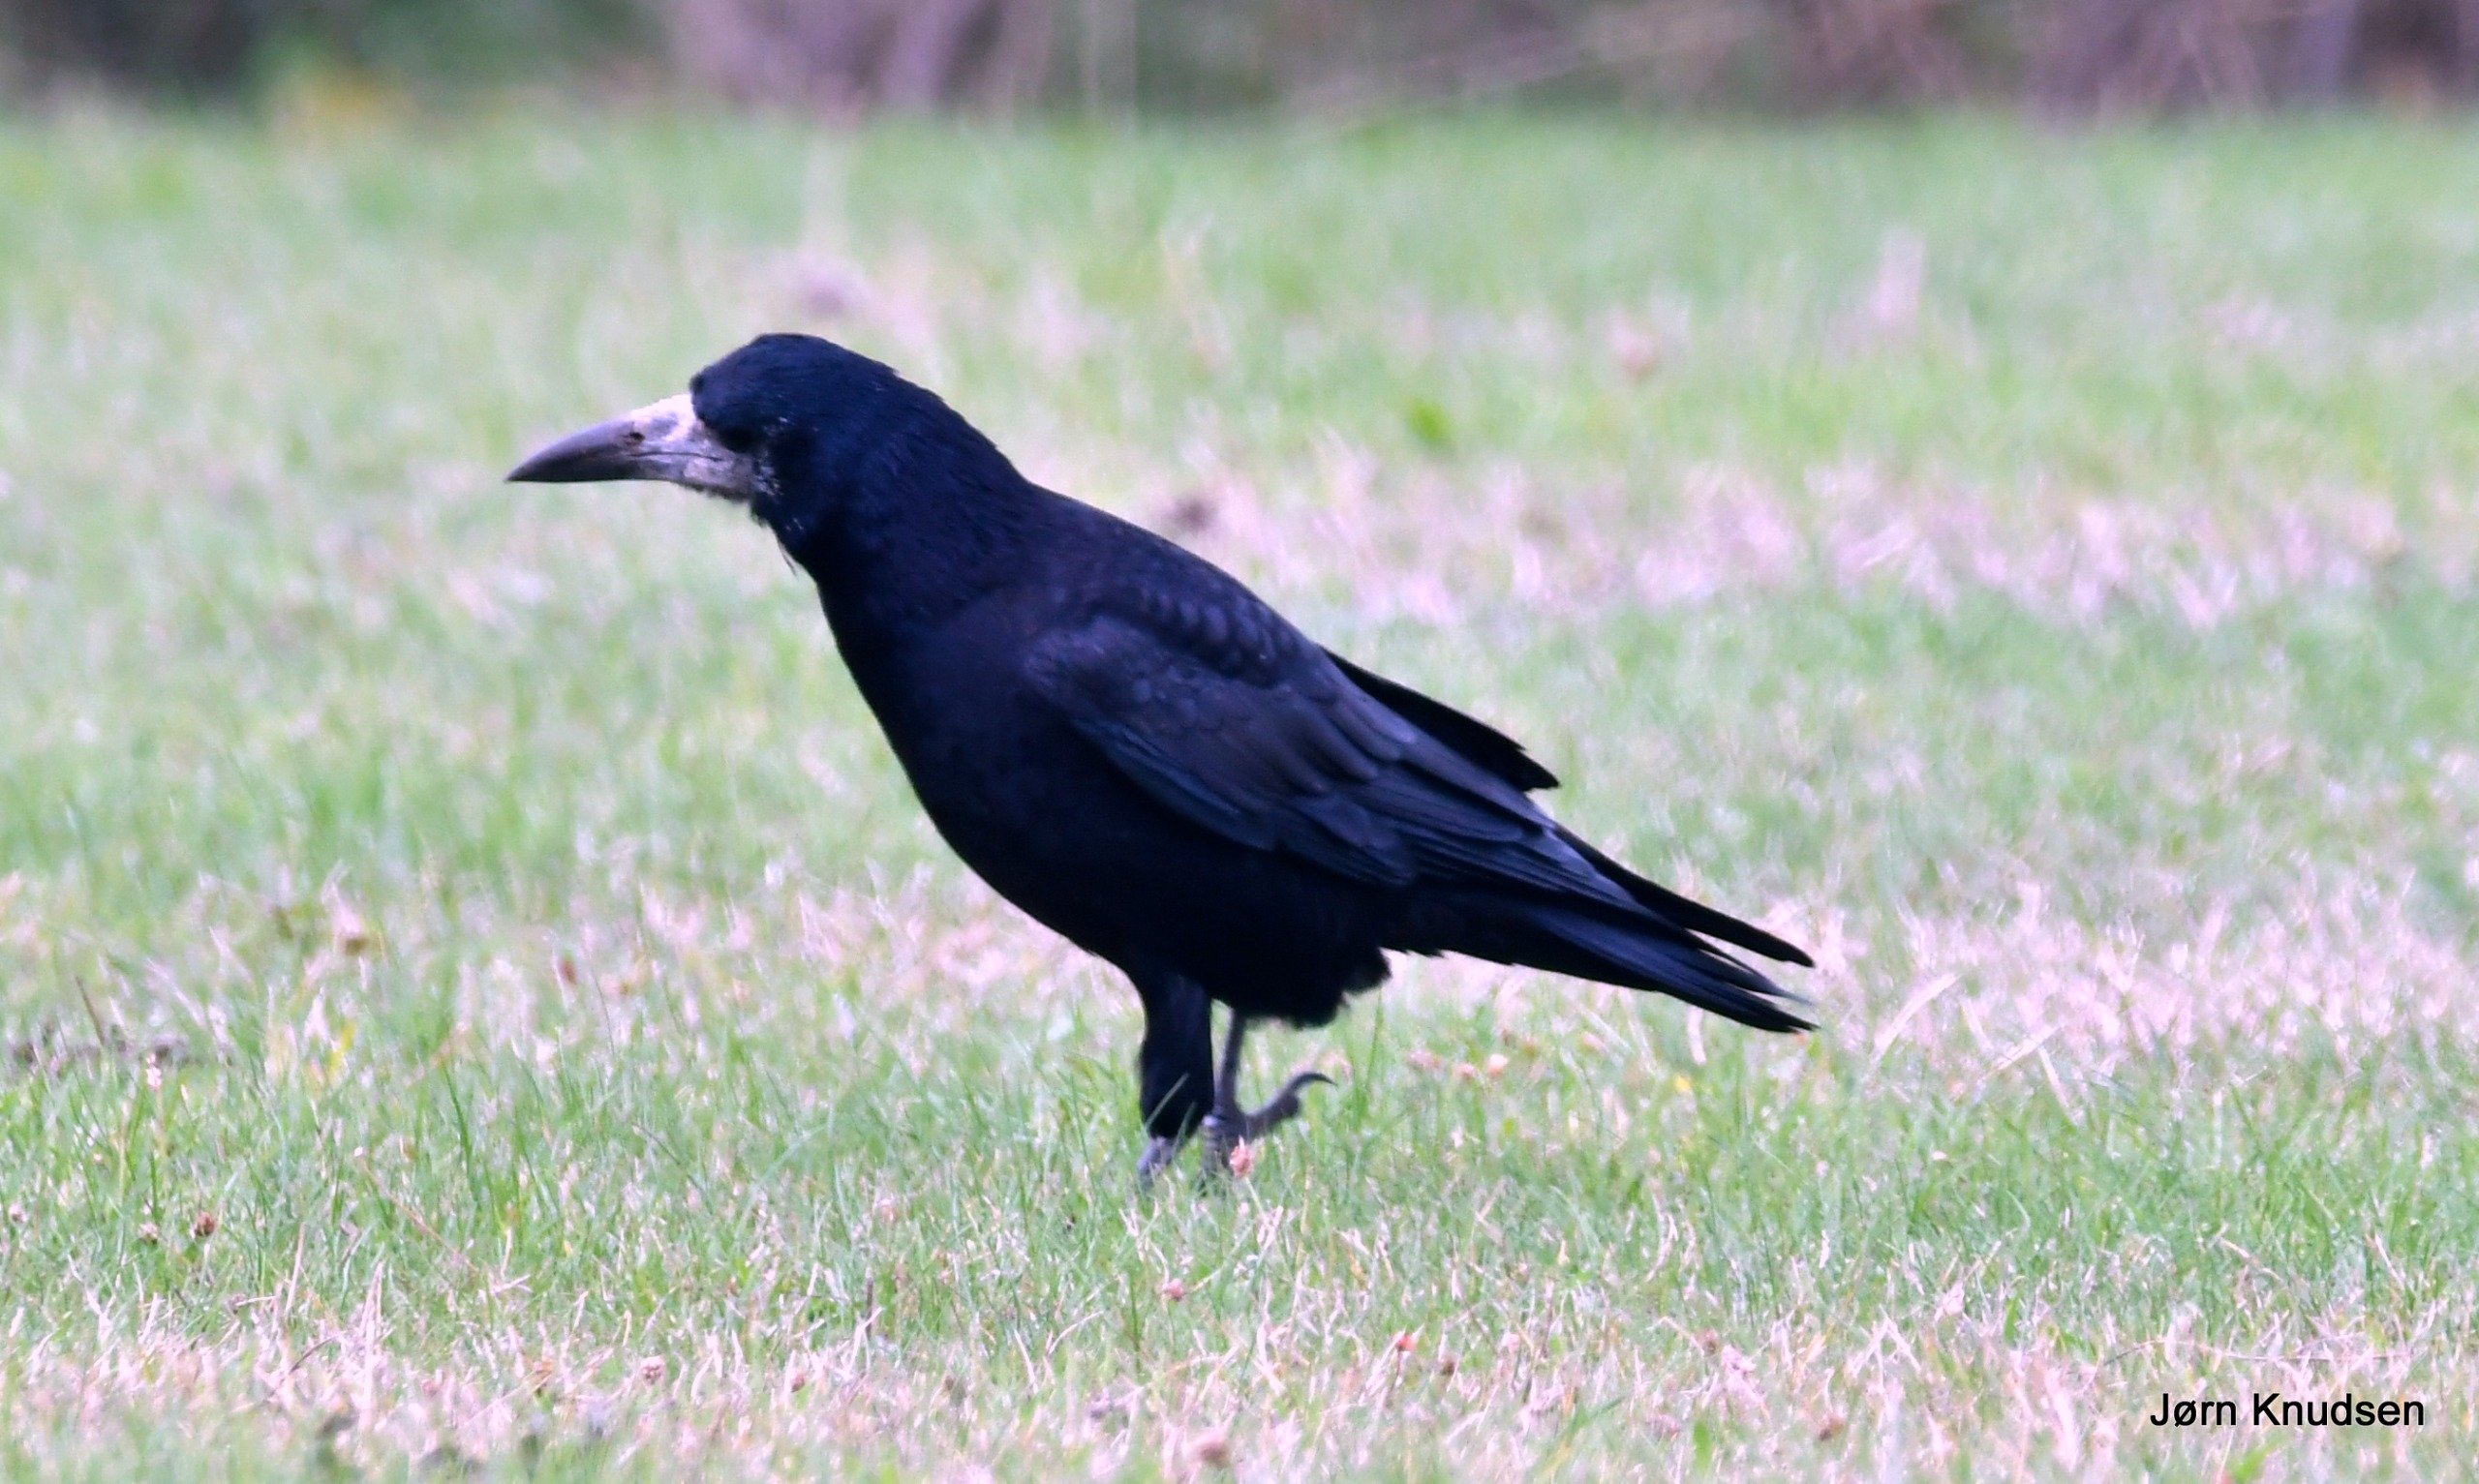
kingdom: Animalia
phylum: Chordata
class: Aves
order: Passeriformes
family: Corvidae
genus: Corvus
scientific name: Corvus frugilegus
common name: Råge
